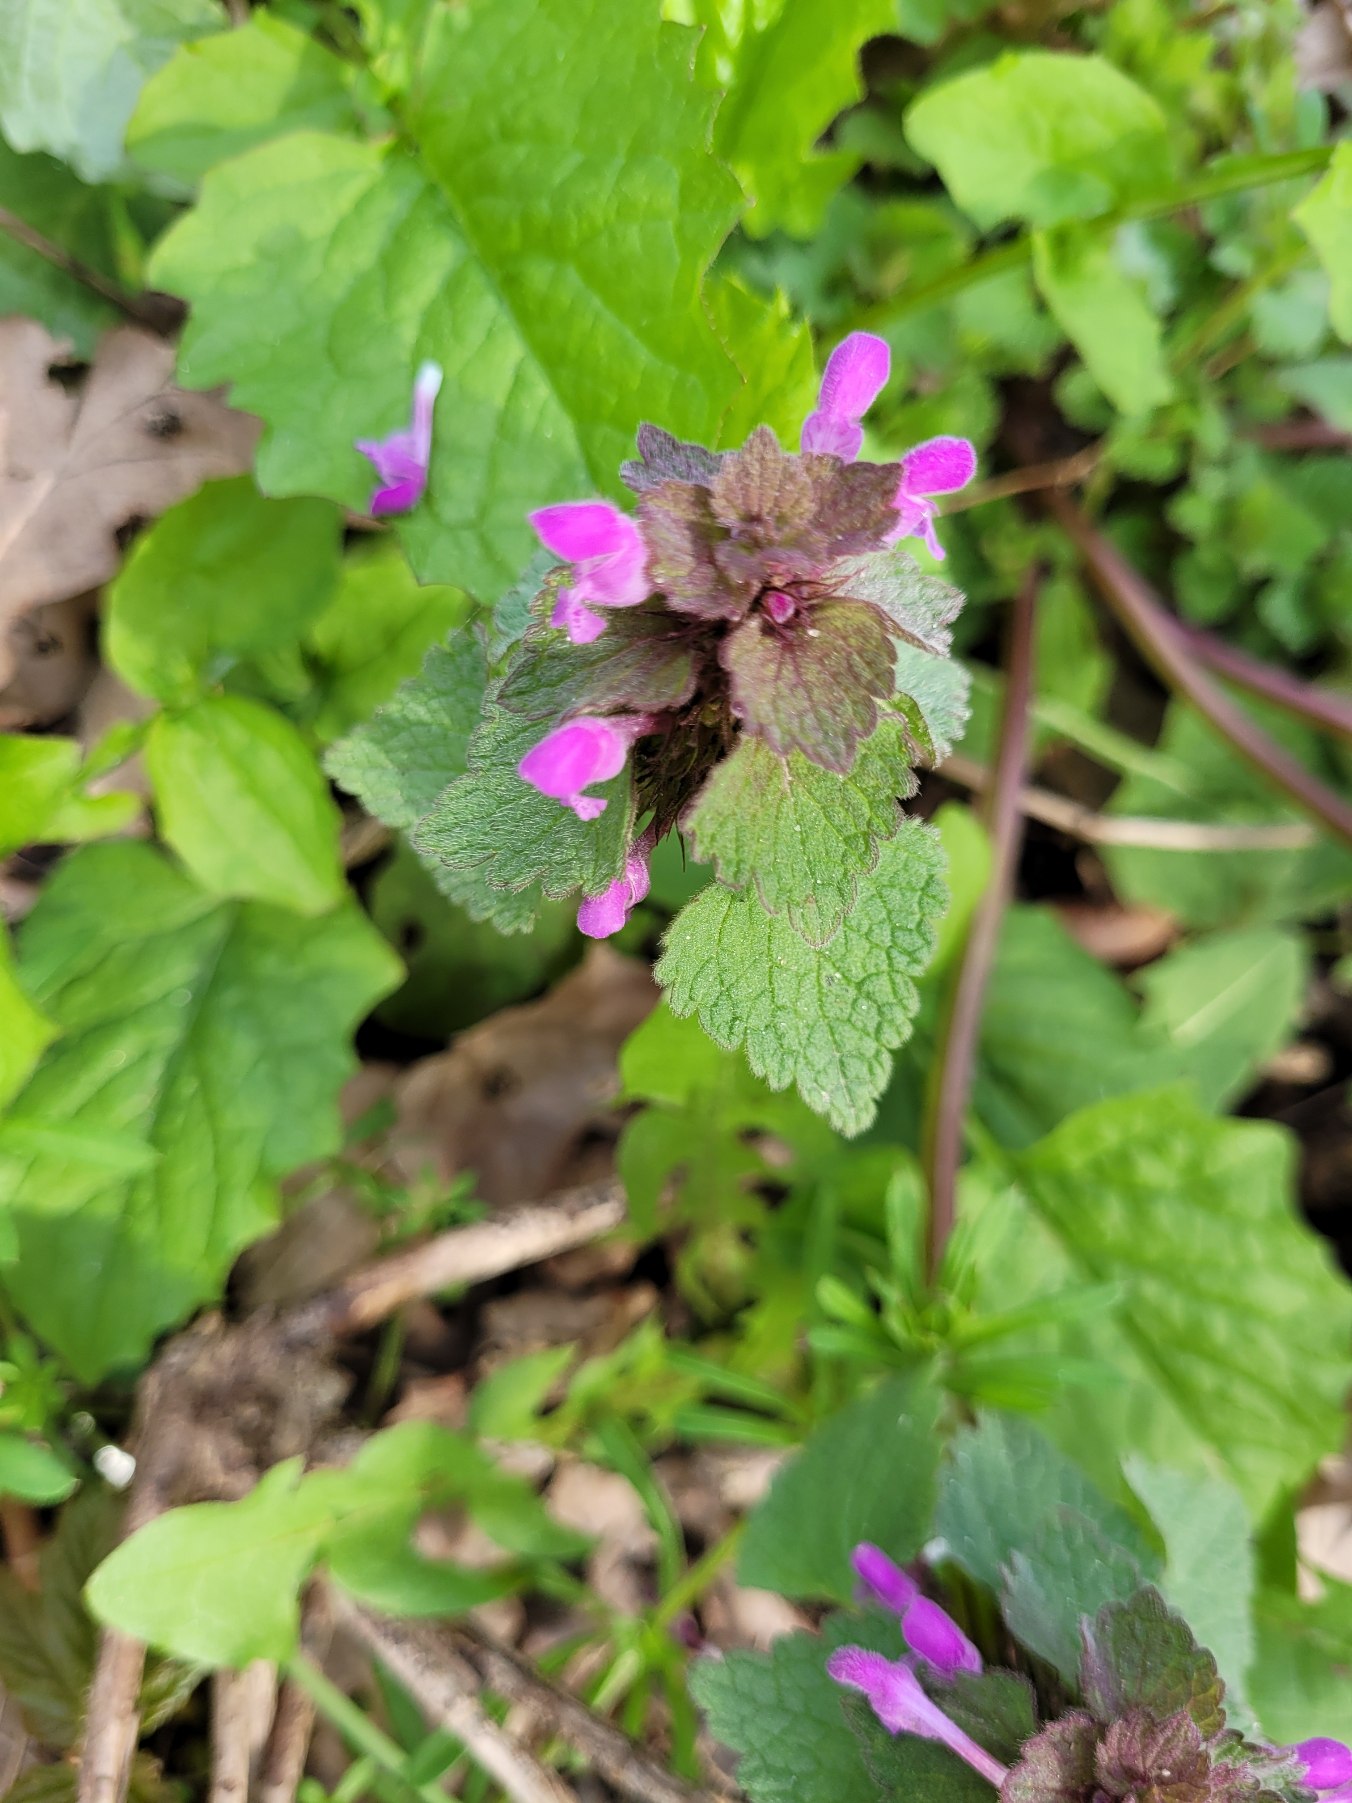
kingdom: Plantae
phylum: Tracheophyta
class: Magnoliopsida
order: Lamiales
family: Lamiaceae
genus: Lamium
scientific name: Lamium purpureum
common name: Rød tvetand
